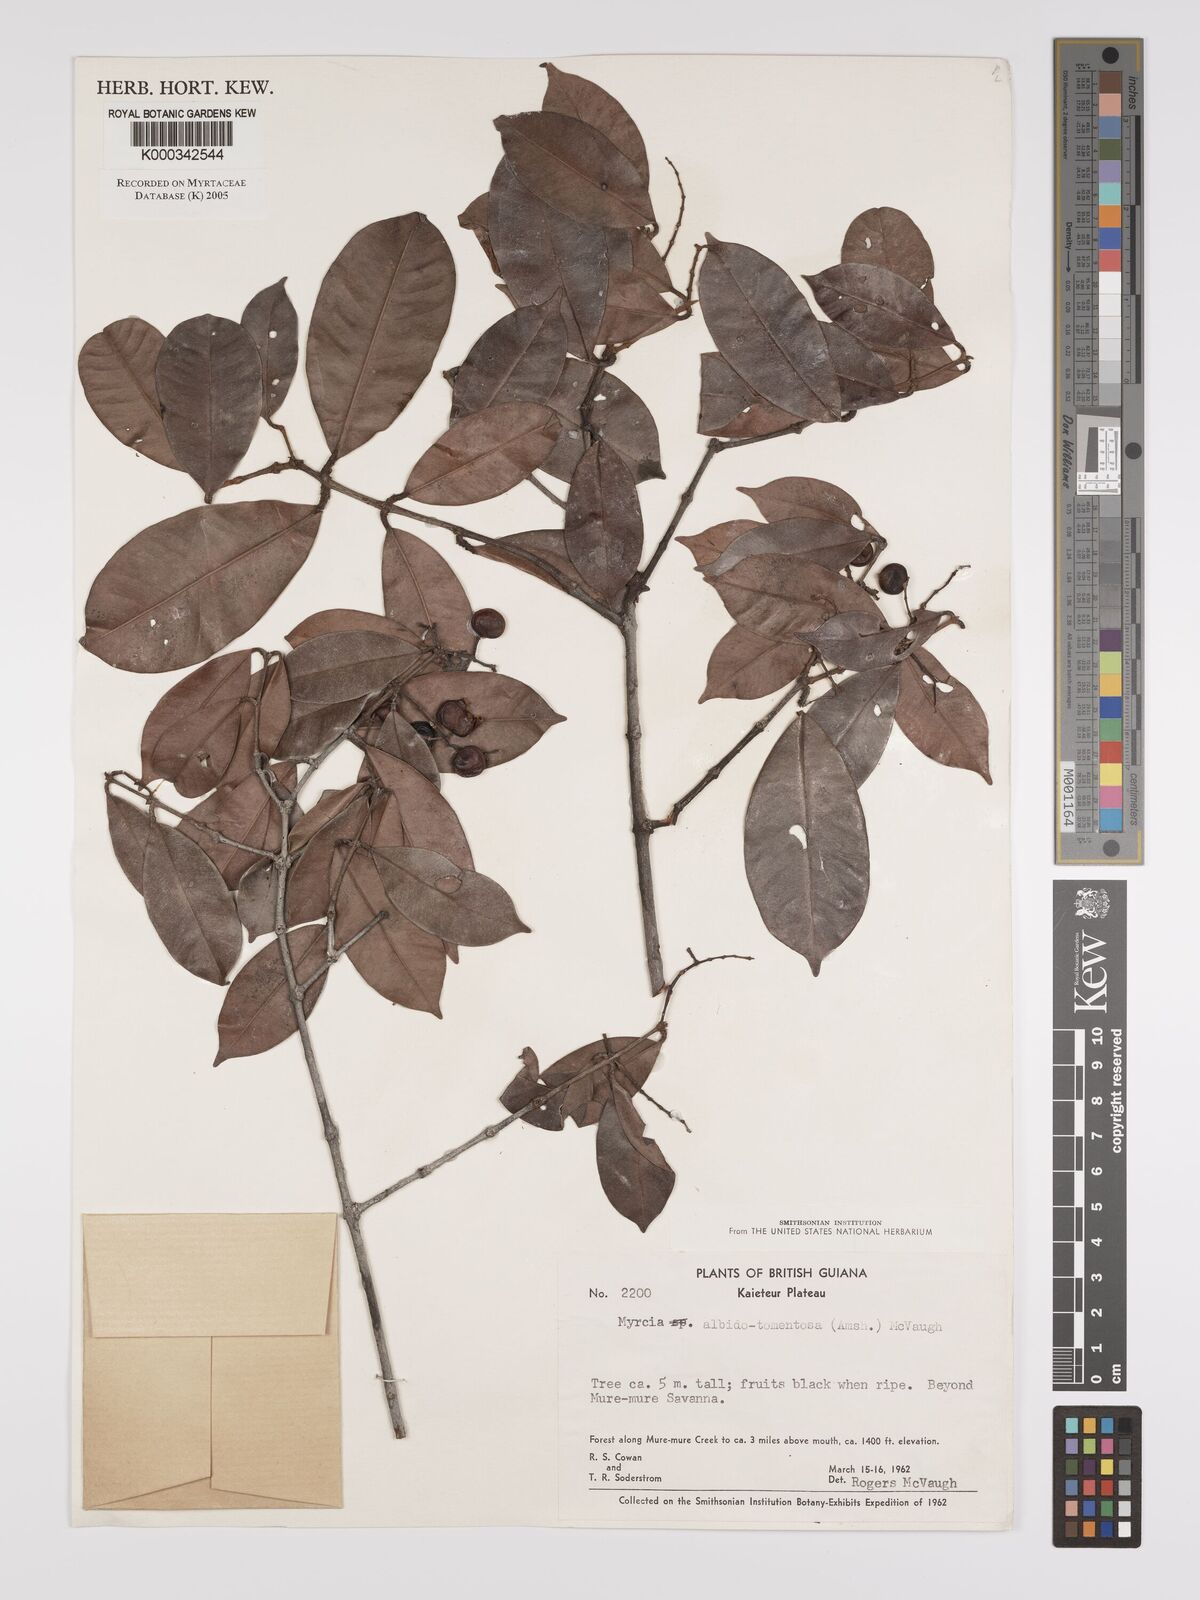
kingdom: Plantae
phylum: Tracheophyta
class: Magnoliopsida
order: Myrtales
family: Myrtaceae
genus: Myrcia
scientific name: Myrcia albidotomentosa
